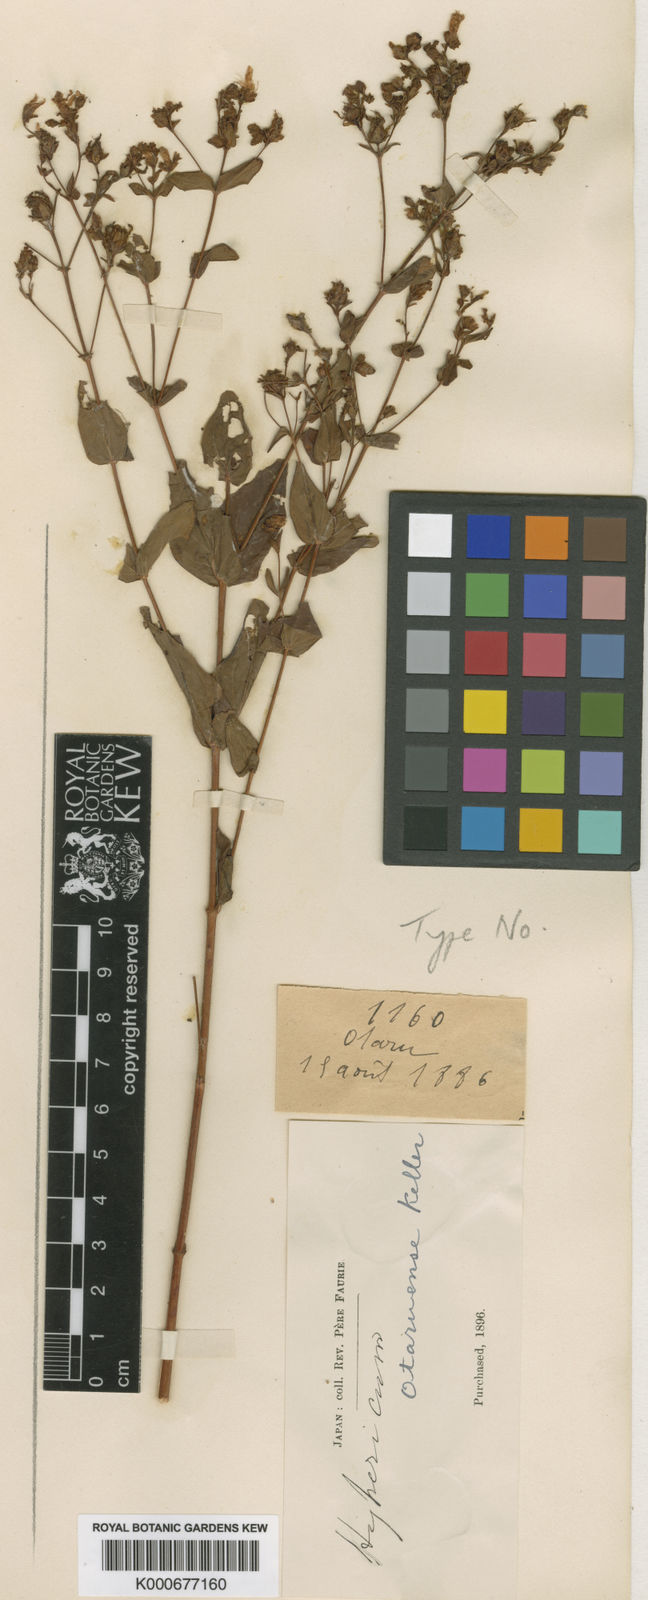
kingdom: Plantae
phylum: Tracheophyta
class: Magnoliopsida
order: Malpighiales
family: Hypericaceae
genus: Hypericum
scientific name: Hypericum erectum
